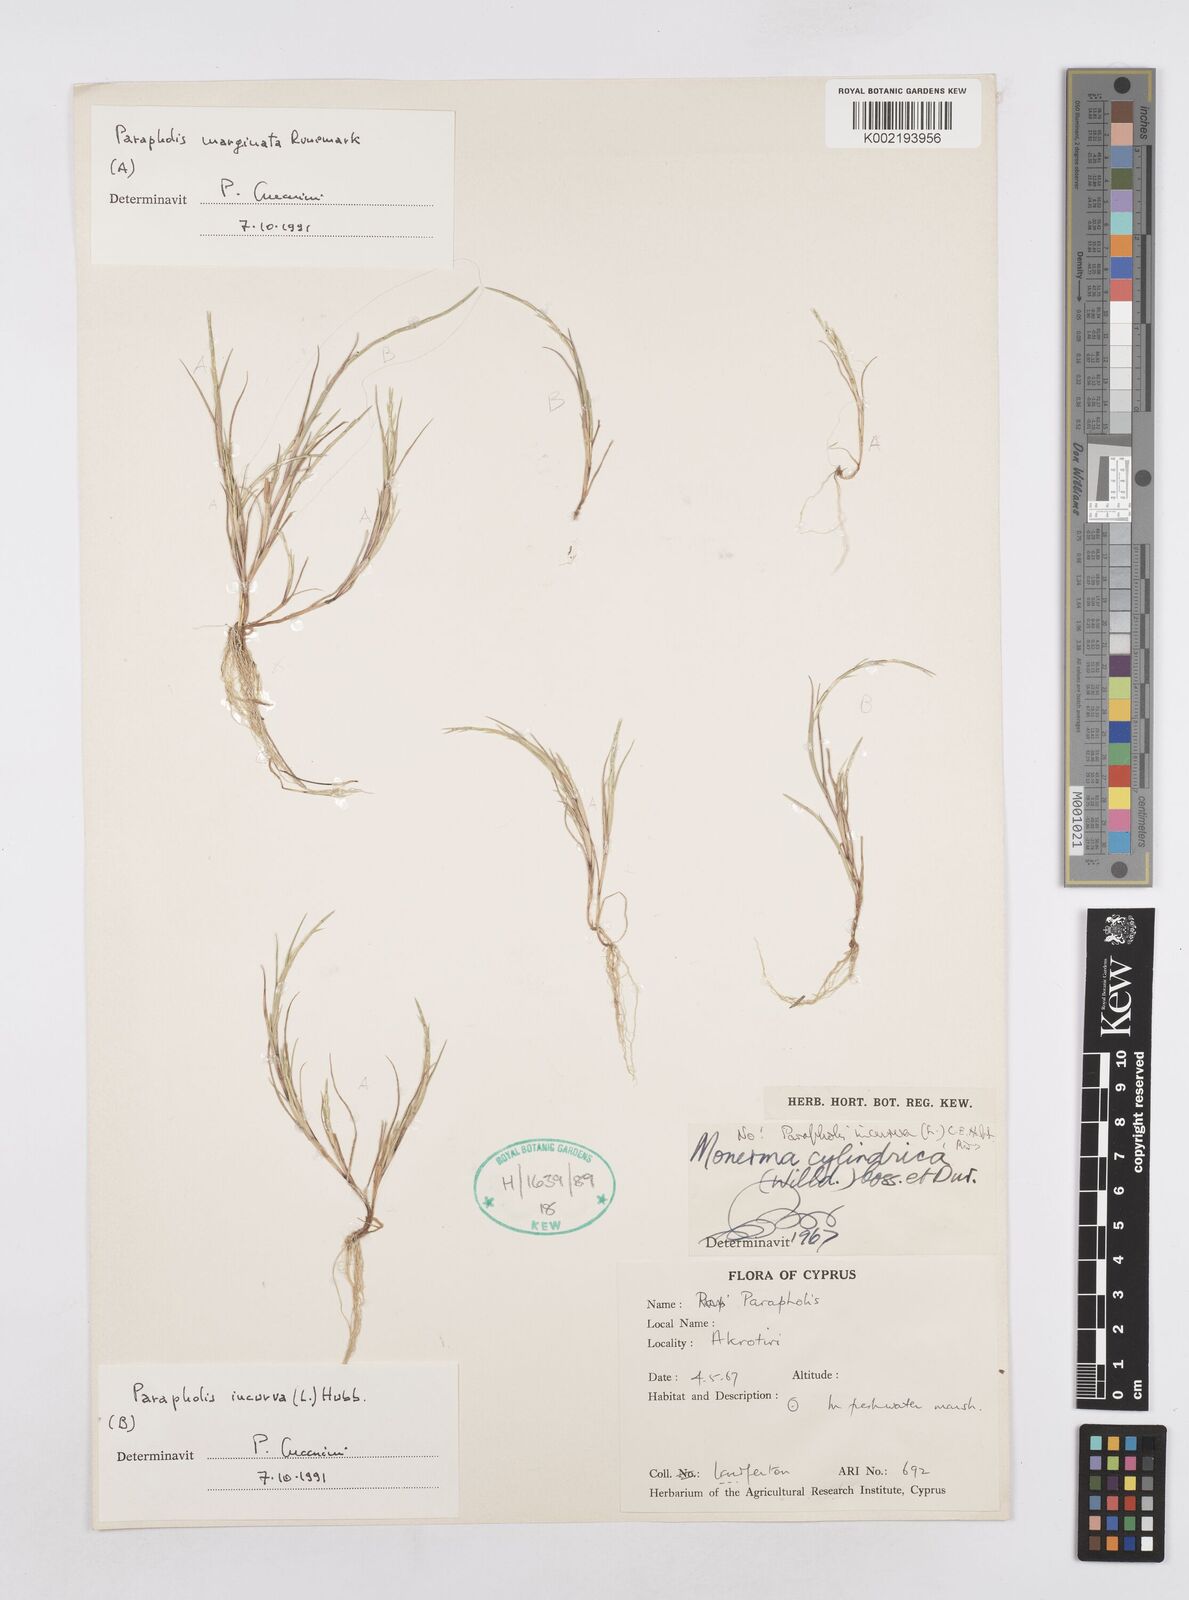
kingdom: Plantae
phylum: Tracheophyta
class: Liliopsida
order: Poales
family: Poaceae
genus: Parapholis
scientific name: Parapholis incurva
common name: Curved sicklegrass
